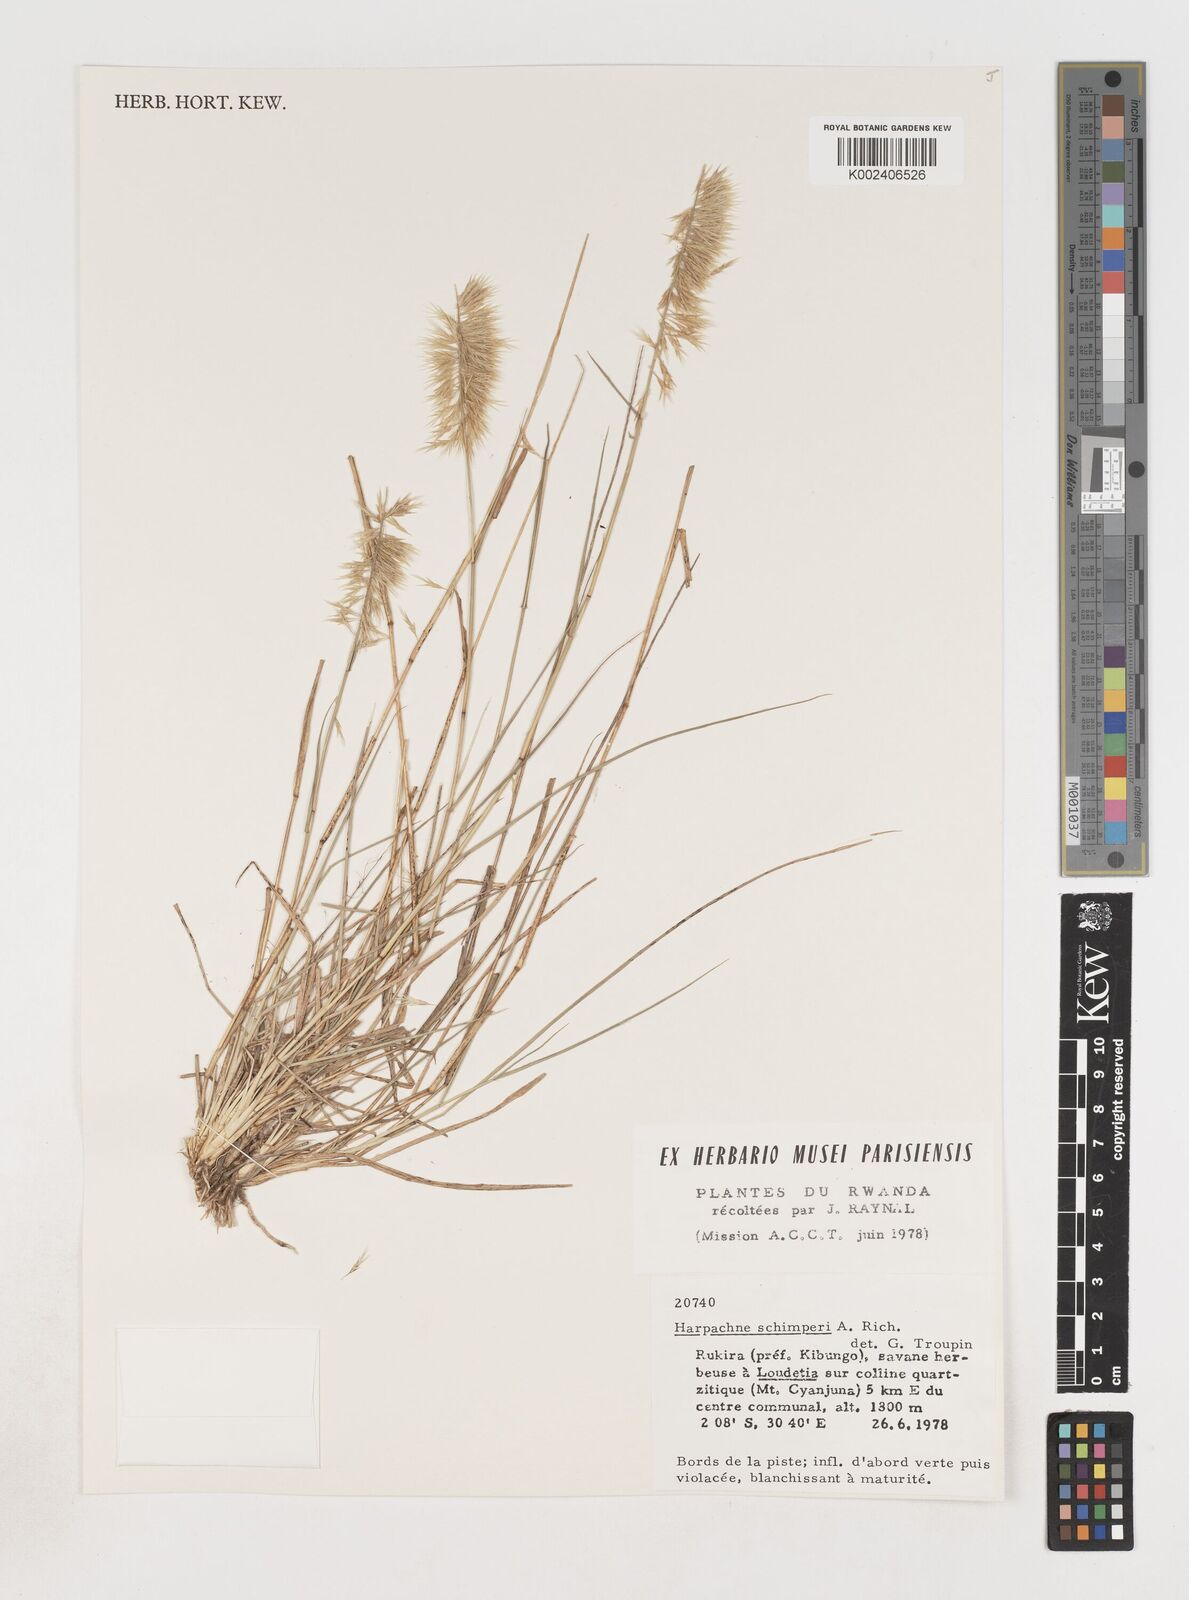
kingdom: Plantae
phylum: Tracheophyta
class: Liliopsida
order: Poales
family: Poaceae
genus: Harpachne
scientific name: Harpachne schimperi
